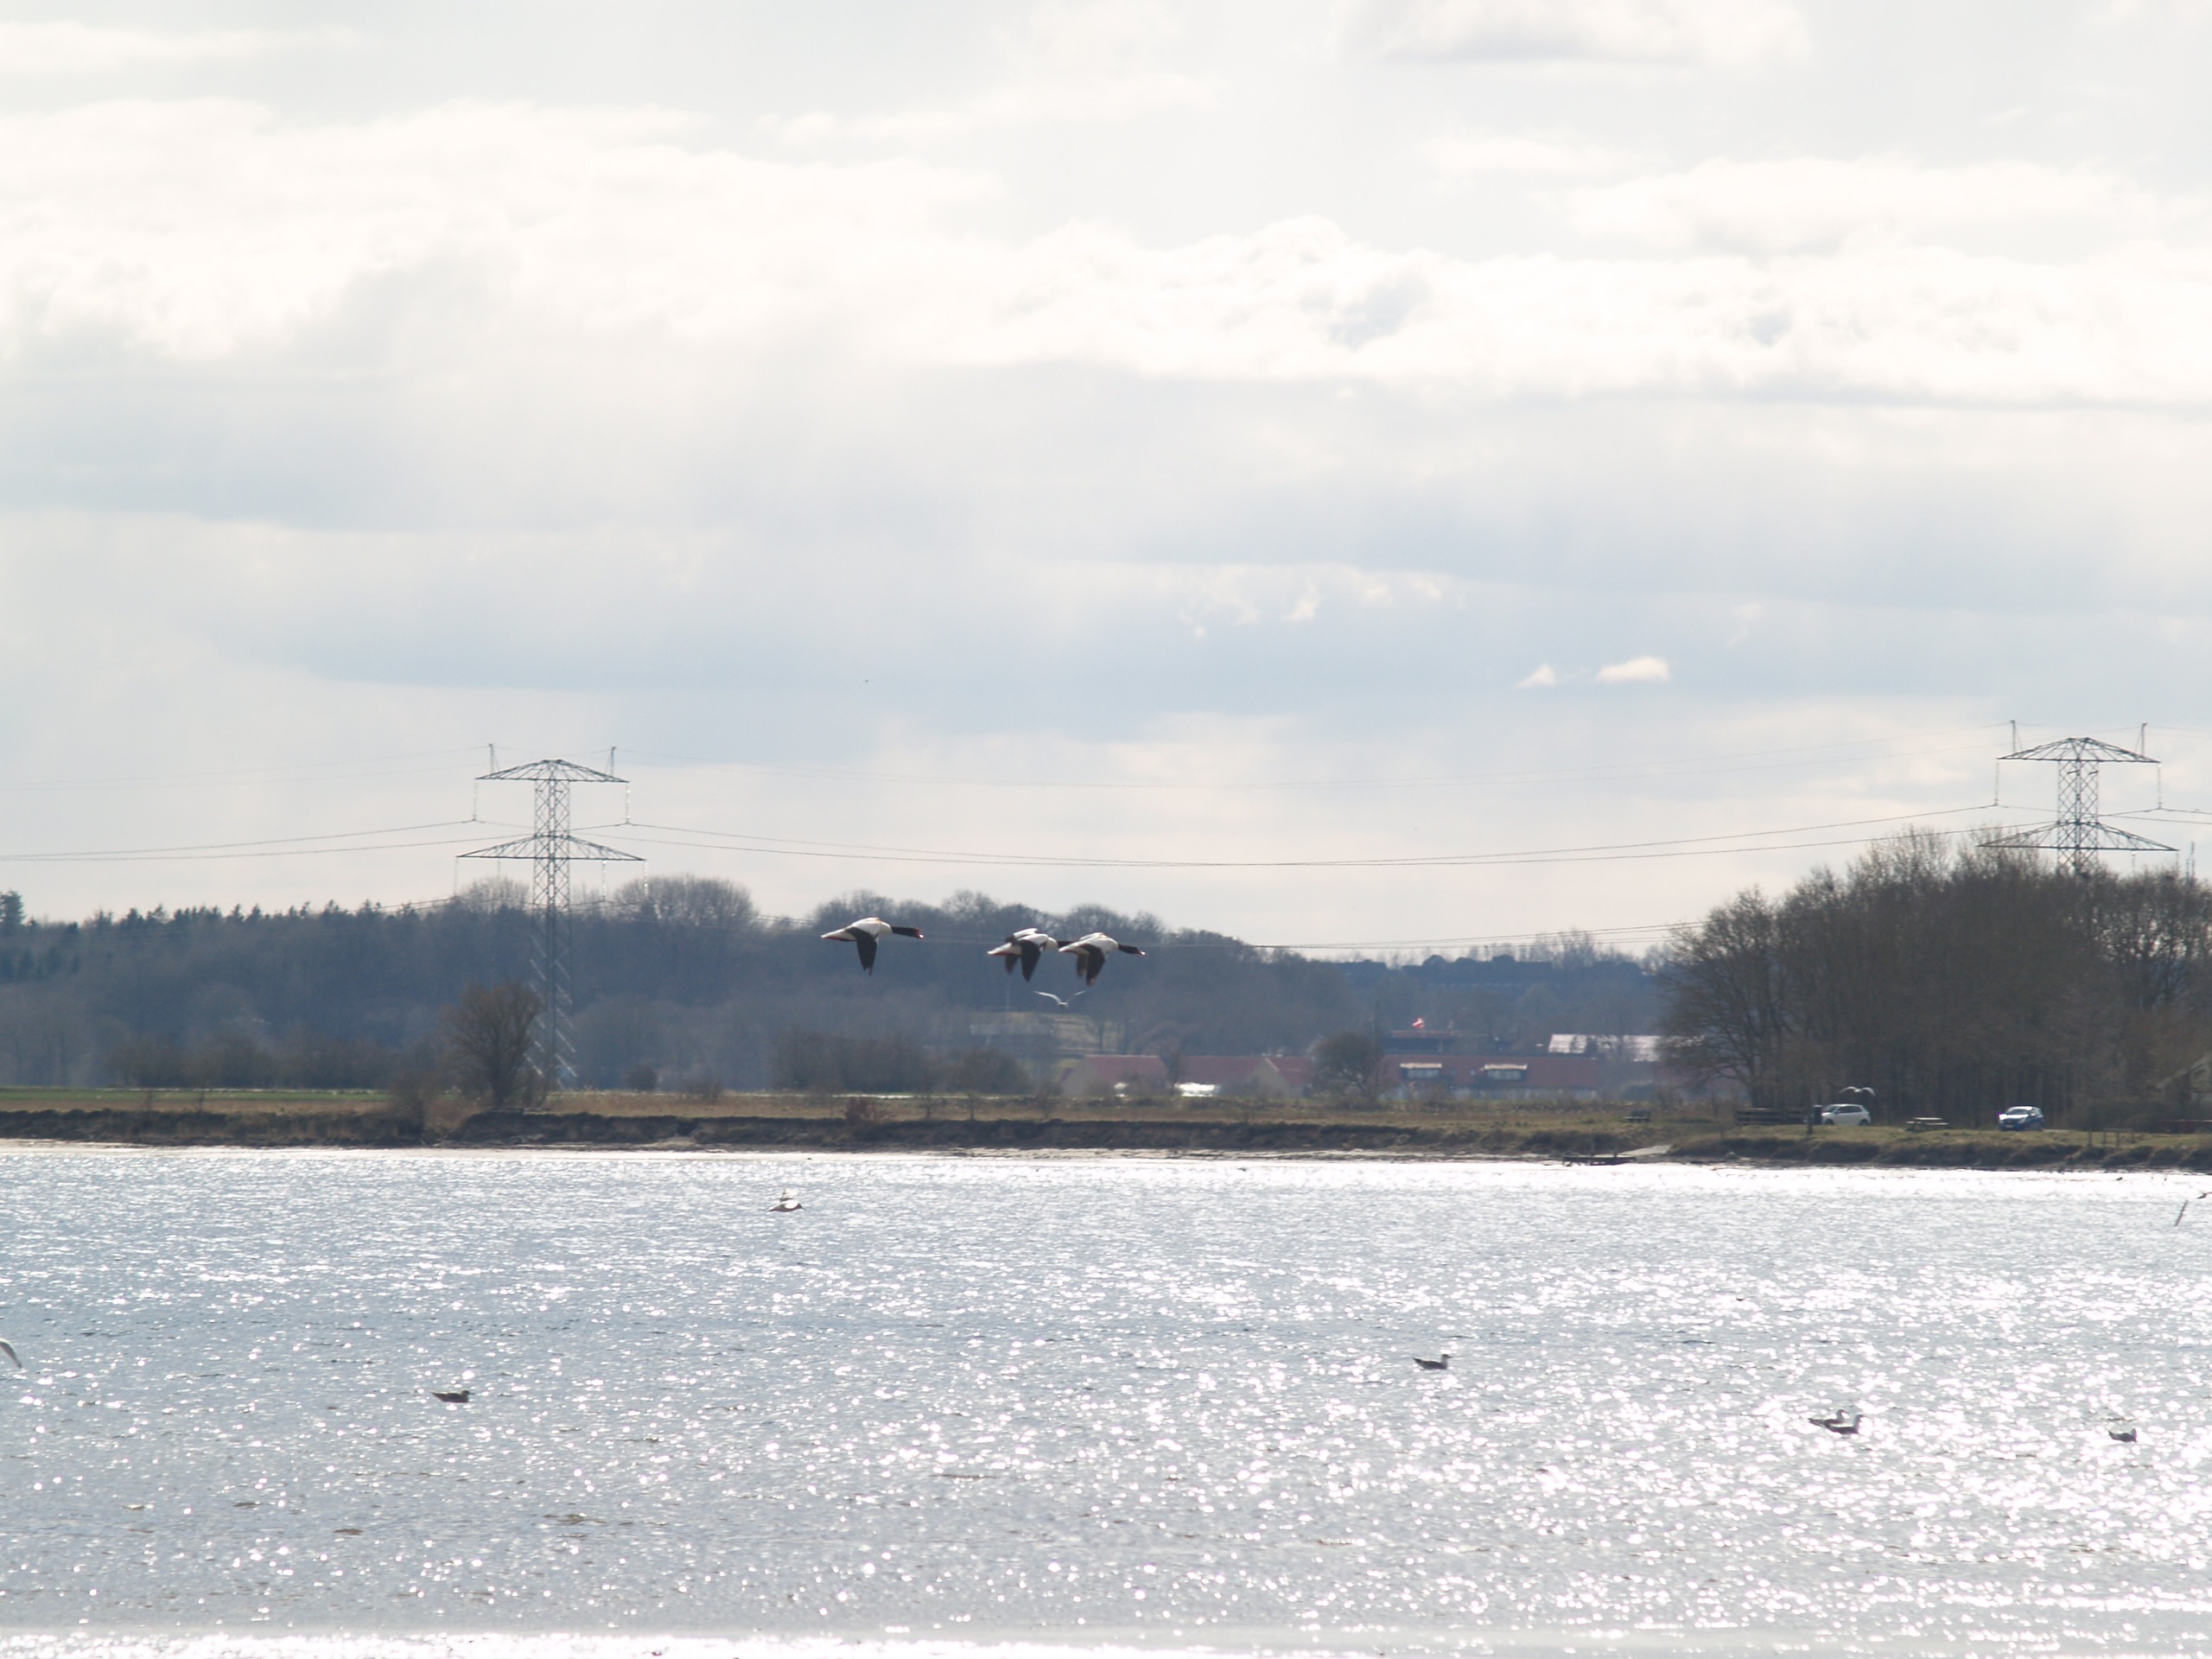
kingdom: Animalia
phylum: Chordata
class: Aves
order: Anseriformes
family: Anatidae
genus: Tadorna
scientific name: Tadorna tadorna
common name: Gravand
